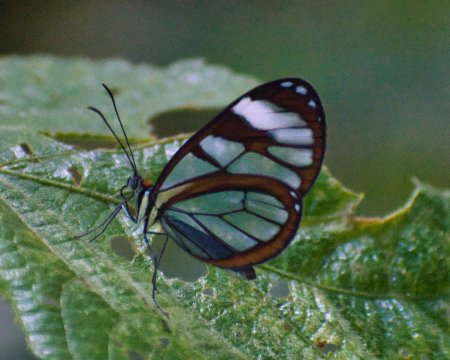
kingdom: Animalia
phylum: Arthropoda
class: Insecta
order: Lepidoptera
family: Nymphalidae
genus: Ithomia
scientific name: Ithomia diasia
